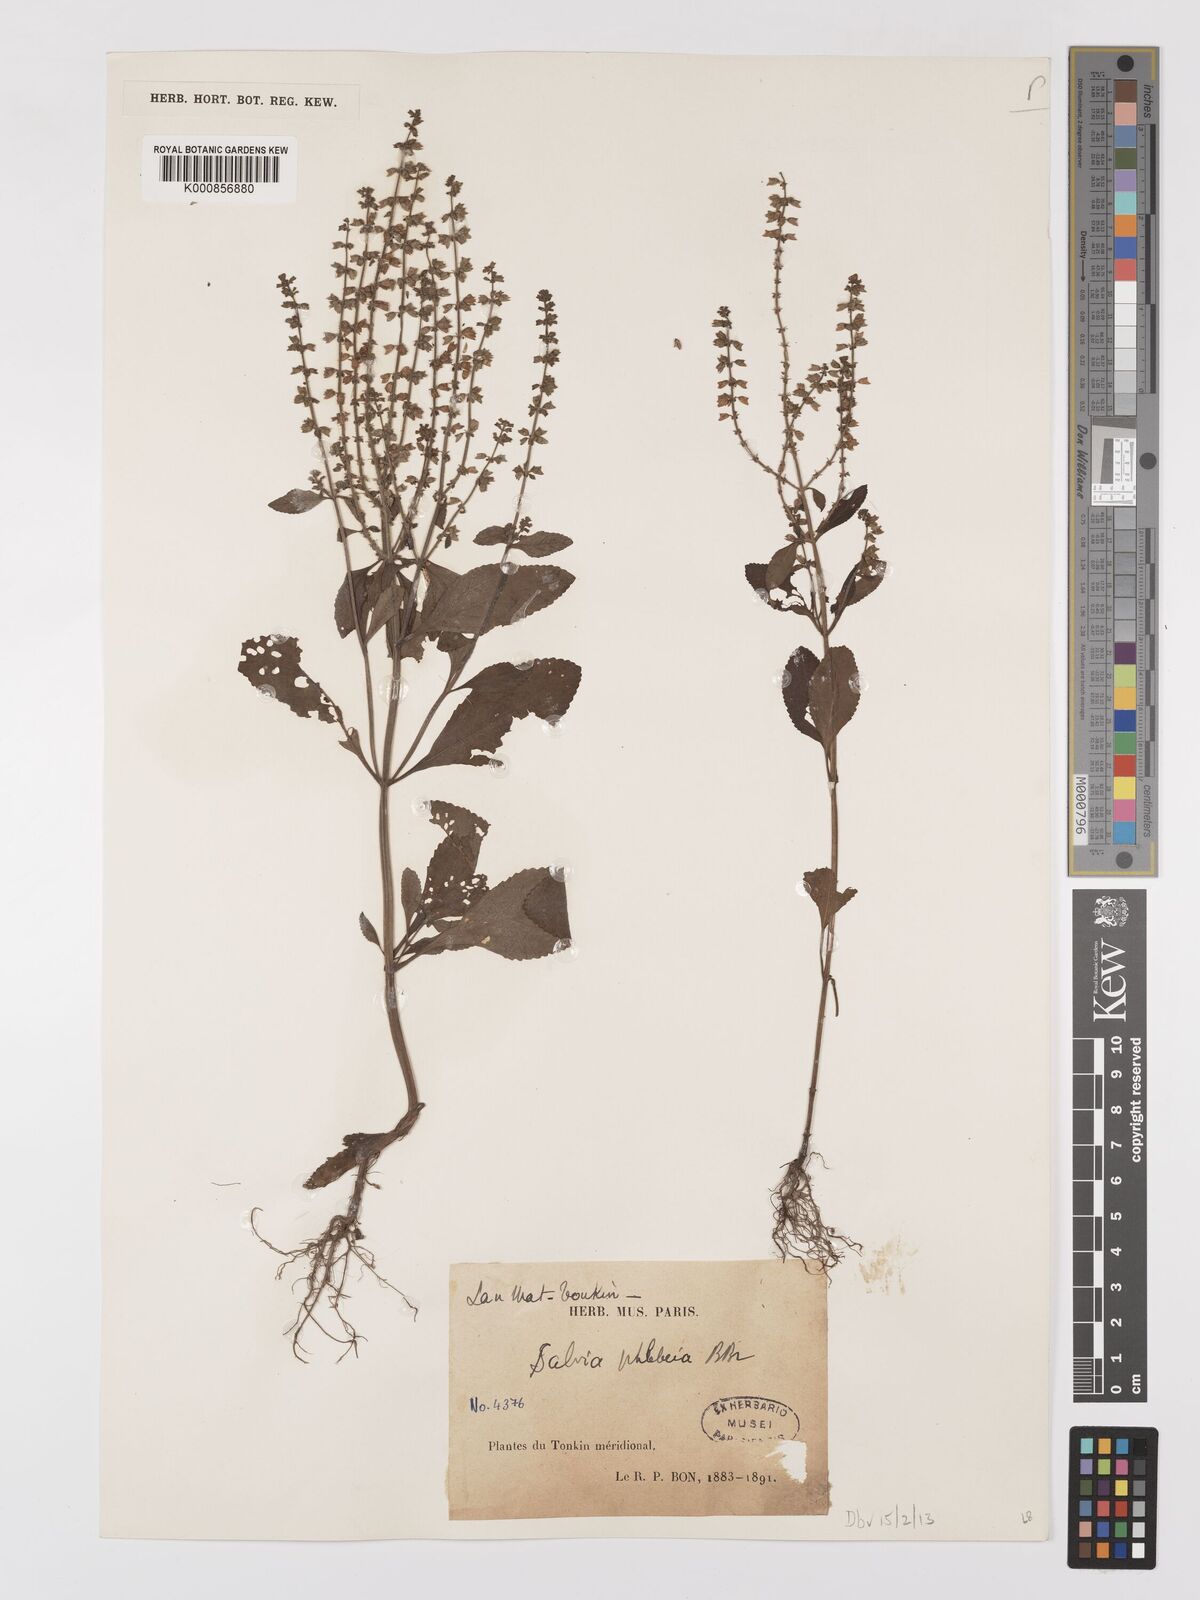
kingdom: Plantae
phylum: Tracheophyta
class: Magnoliopsida
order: Lamiales
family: Lamiaceae
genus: Salvia
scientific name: Salvia plebeia
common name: Australian sage
